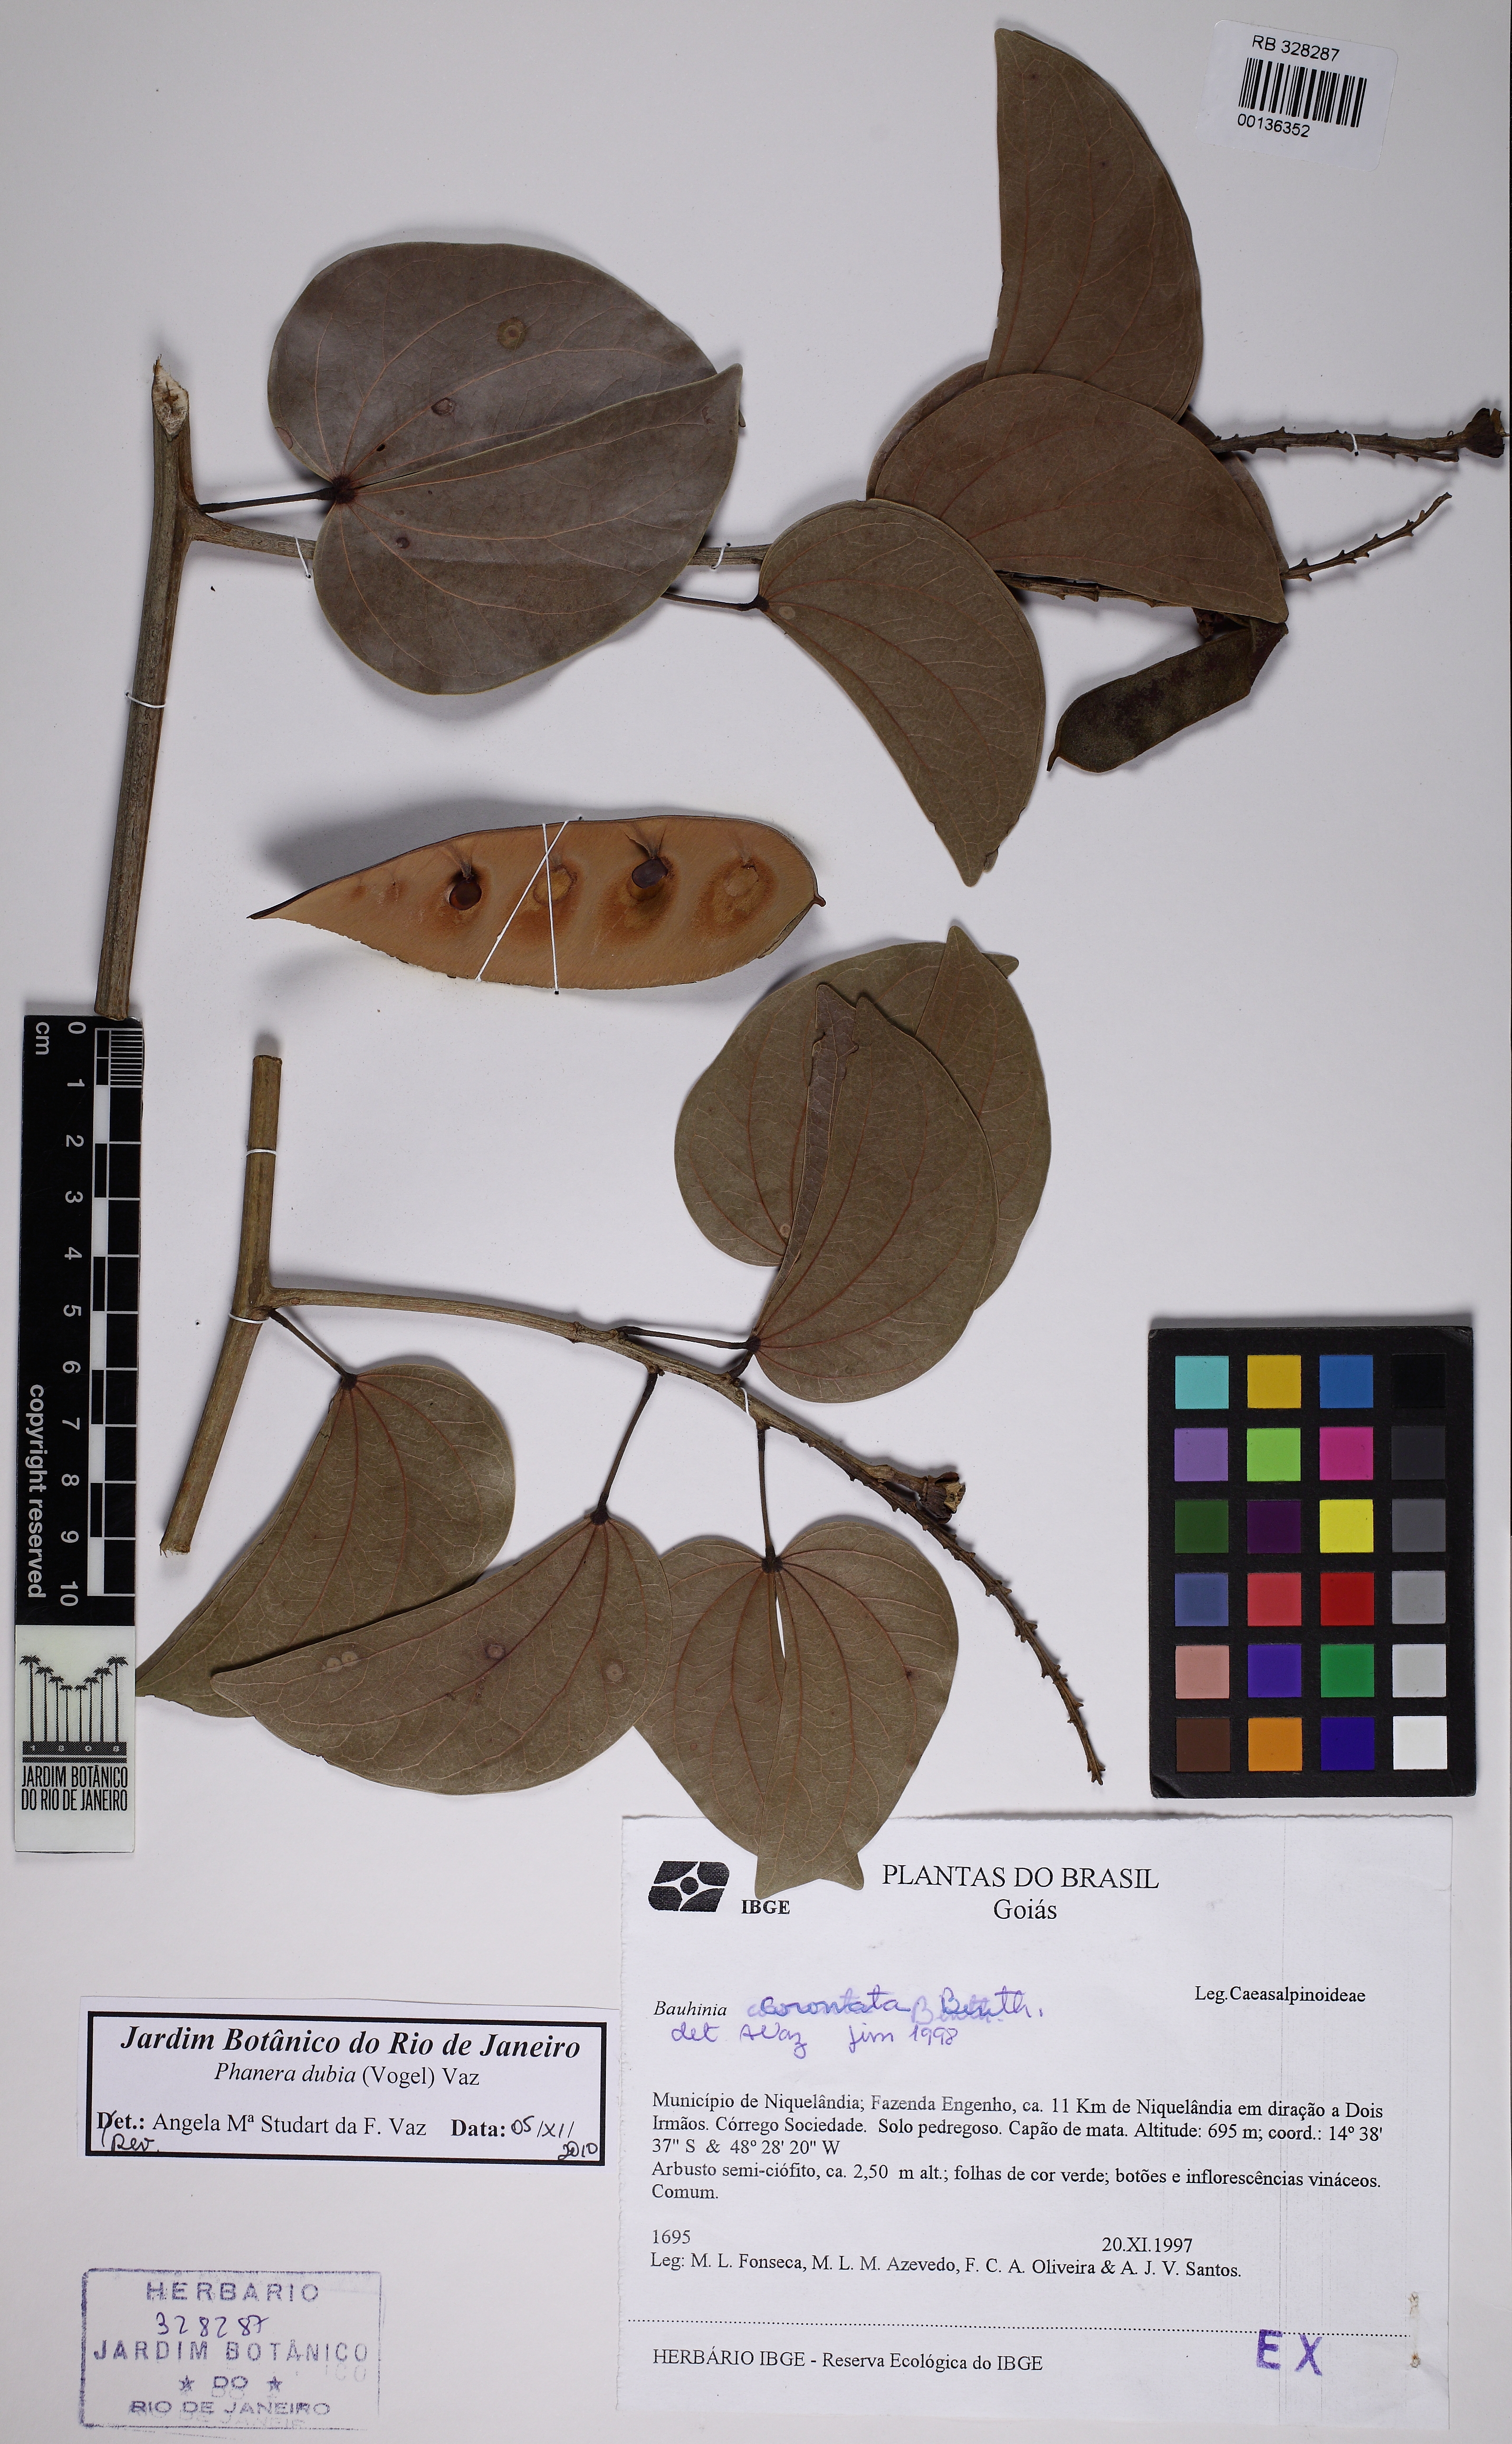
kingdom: Plantae
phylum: Tracheophyta
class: Magnoliopsida
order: Fabales
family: Fabaceae
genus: Schnella
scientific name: Schnella outimouta
